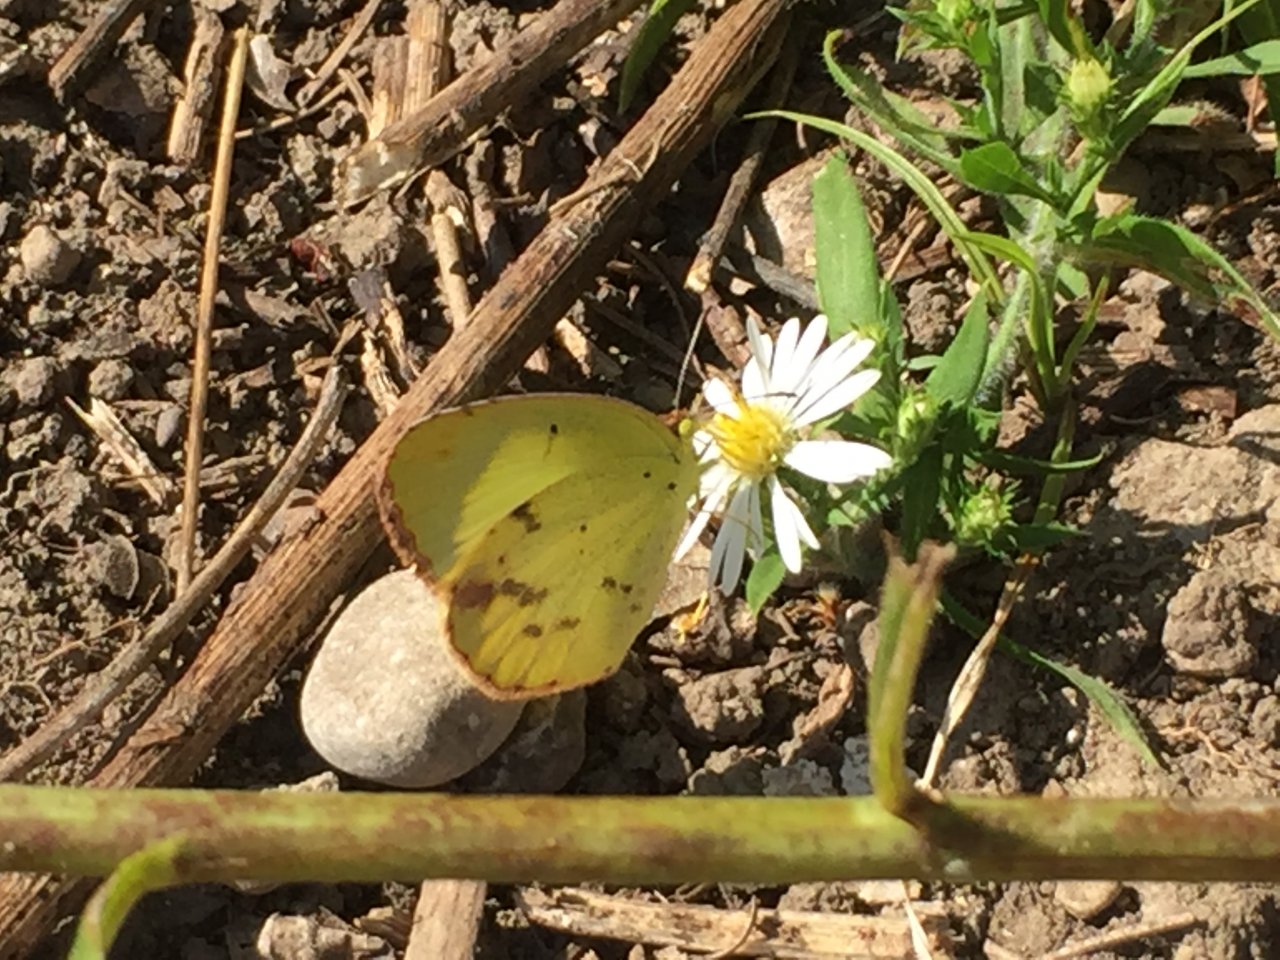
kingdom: Animalia
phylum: Arthropoda
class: Insecta
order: Lepidoptera
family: Pieridae
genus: Pyrisitia
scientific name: Pyrisitia lisa
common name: Little Yellow
